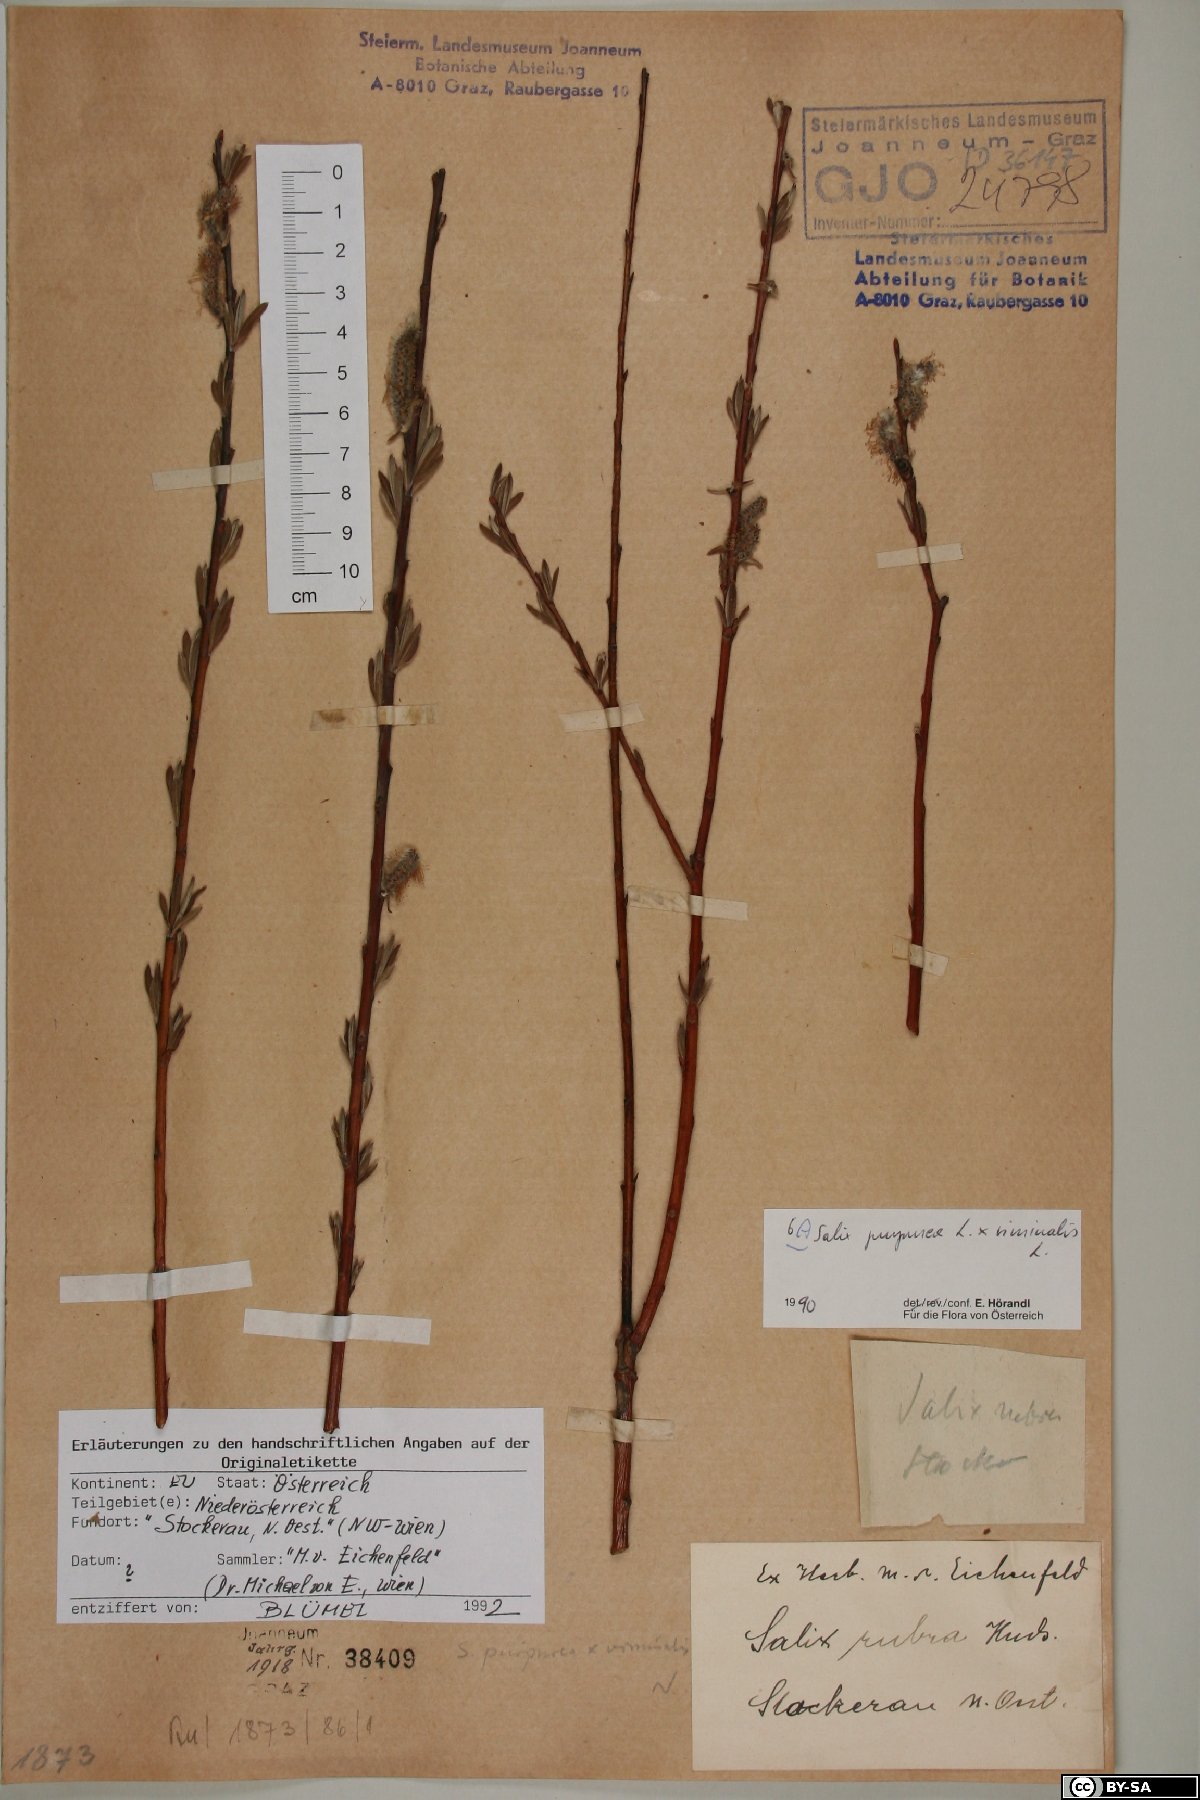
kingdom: Plantae
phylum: Tracheophyta
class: Magnoliopsida
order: Malpighiales
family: Salicaceae
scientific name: Salicaceae
